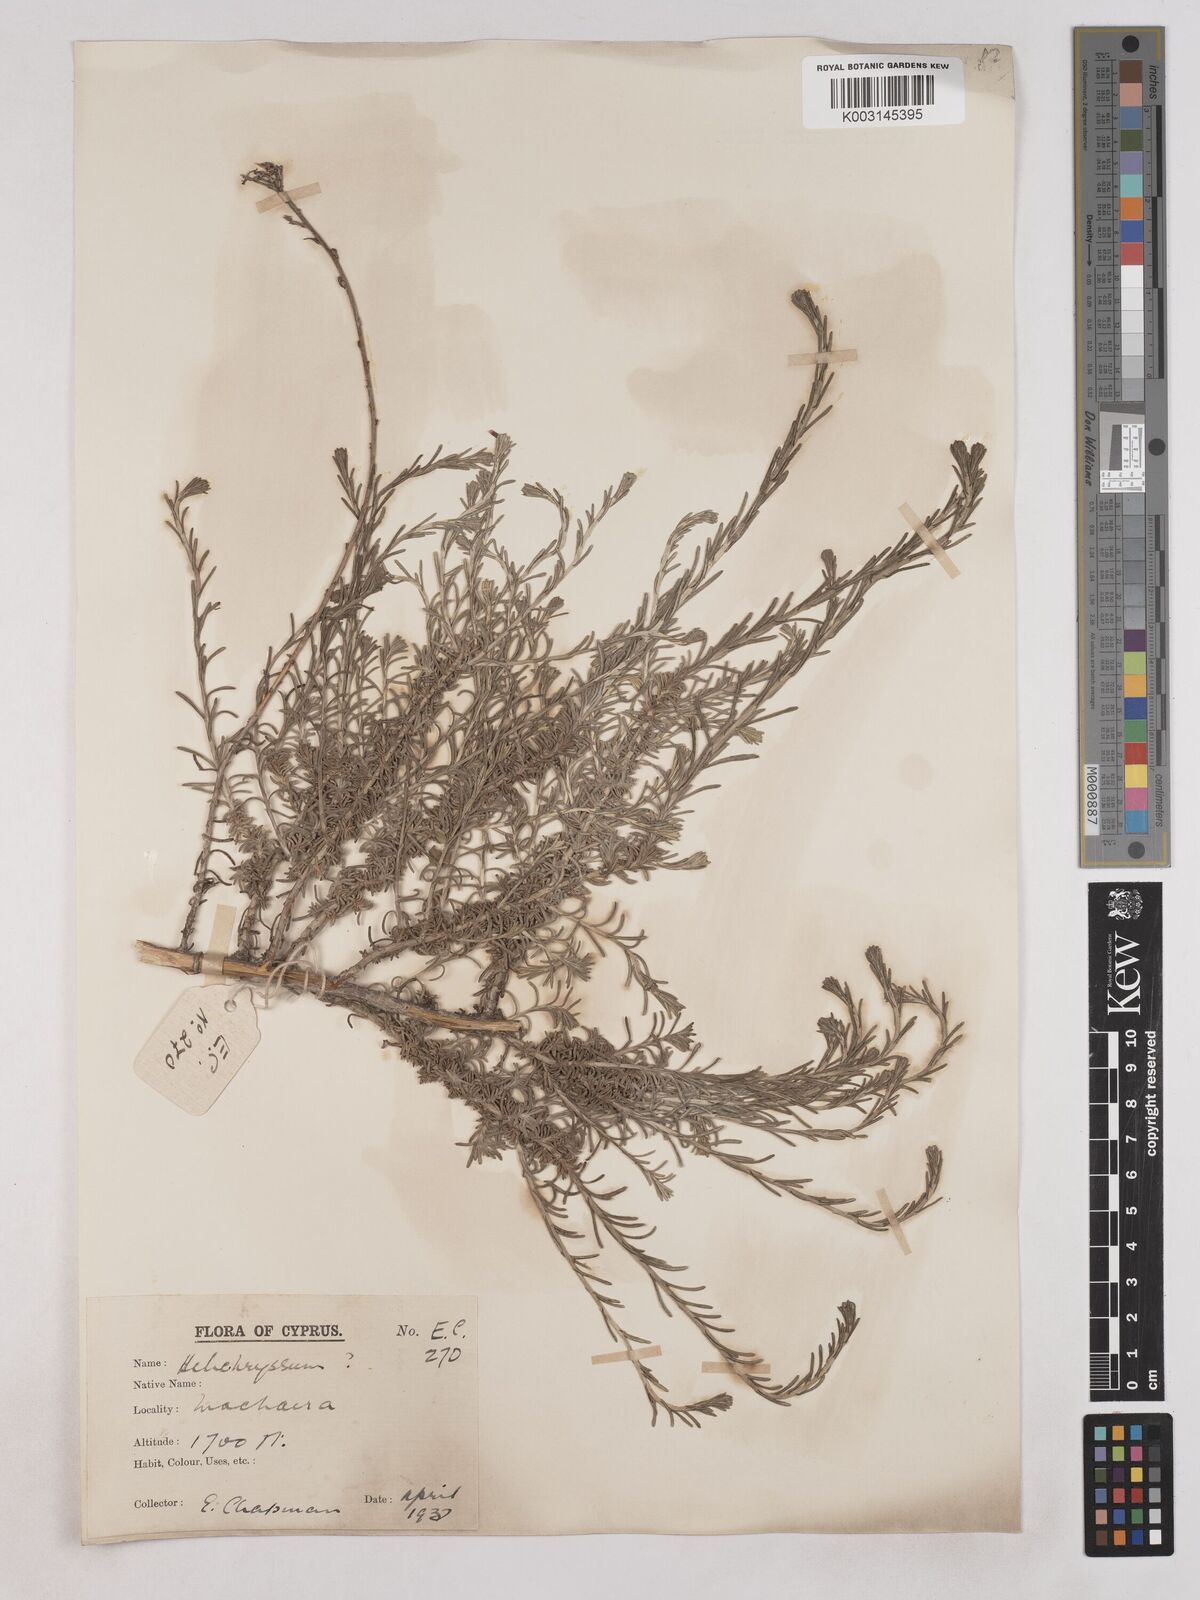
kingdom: Plantae
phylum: Tracheophyta
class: Magnoliopsida
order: Asterales
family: Asteraceae
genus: Helichrysum
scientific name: Helichrysum italicum
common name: Curryplant
